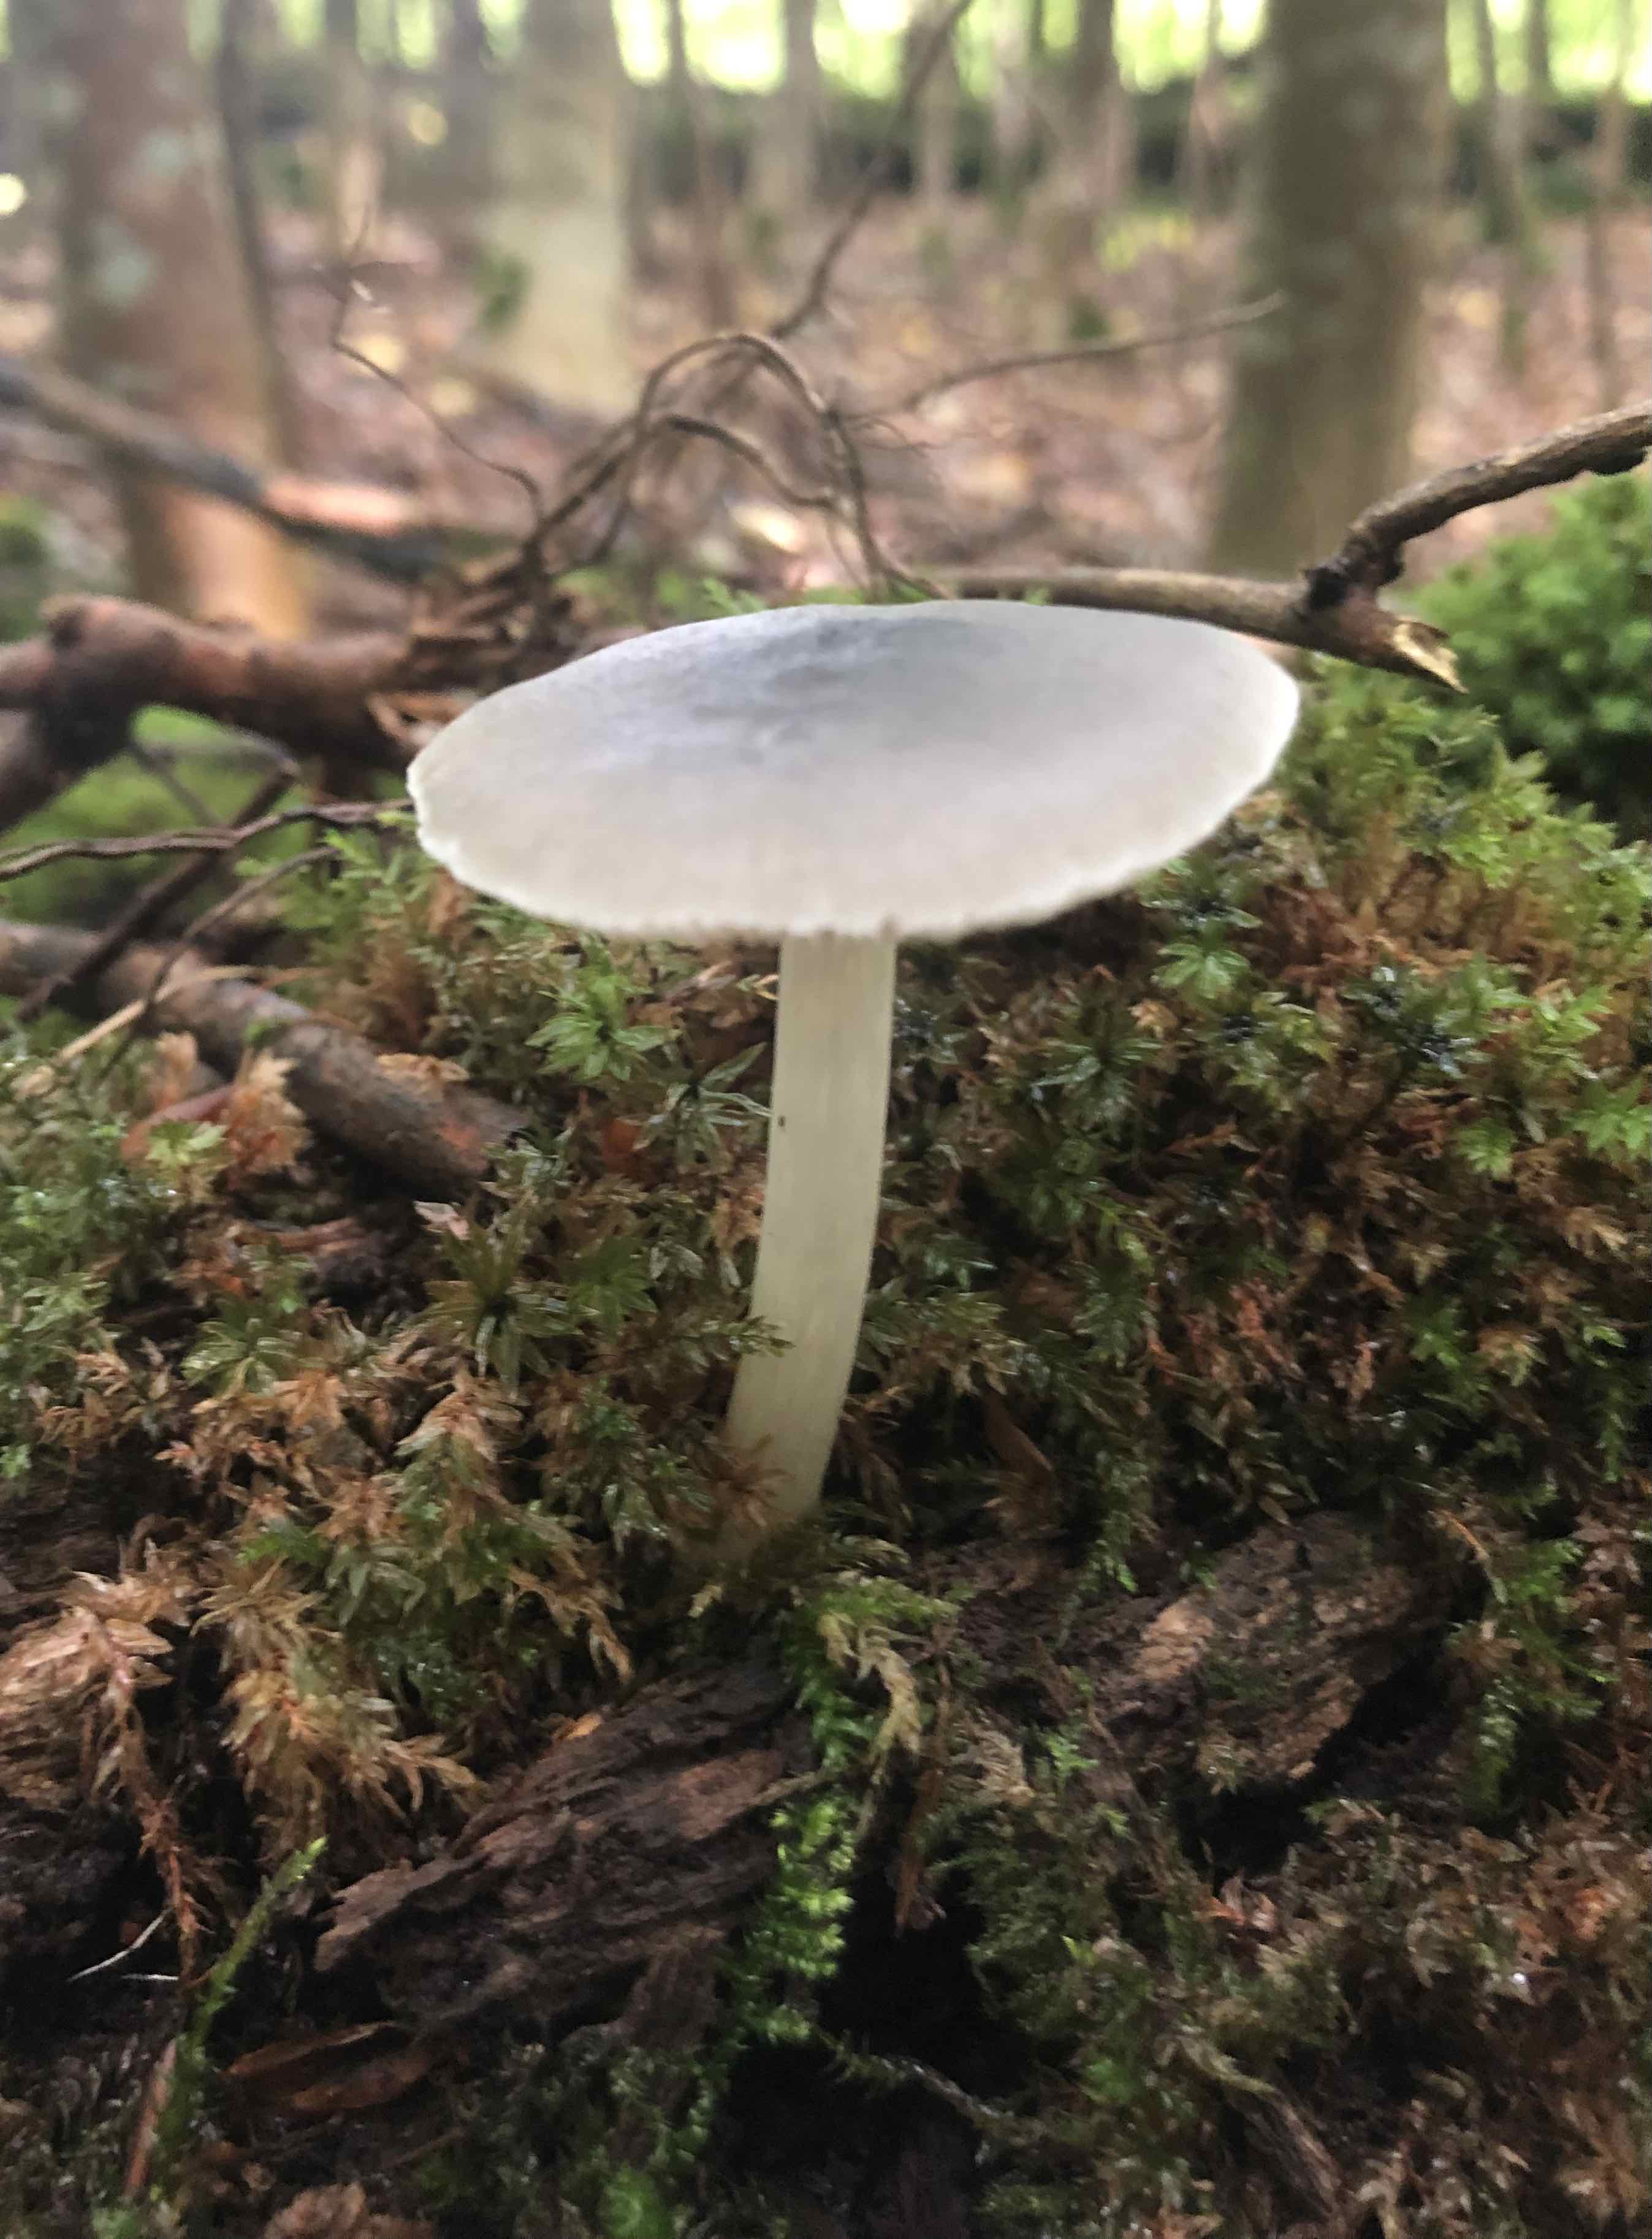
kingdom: Fungi
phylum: Basidiomycota
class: Agaricomycetes
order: Agaricales
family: Pluteaceae
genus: Pluteus
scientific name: Pluteus salicinus
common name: stiv skærmhat
